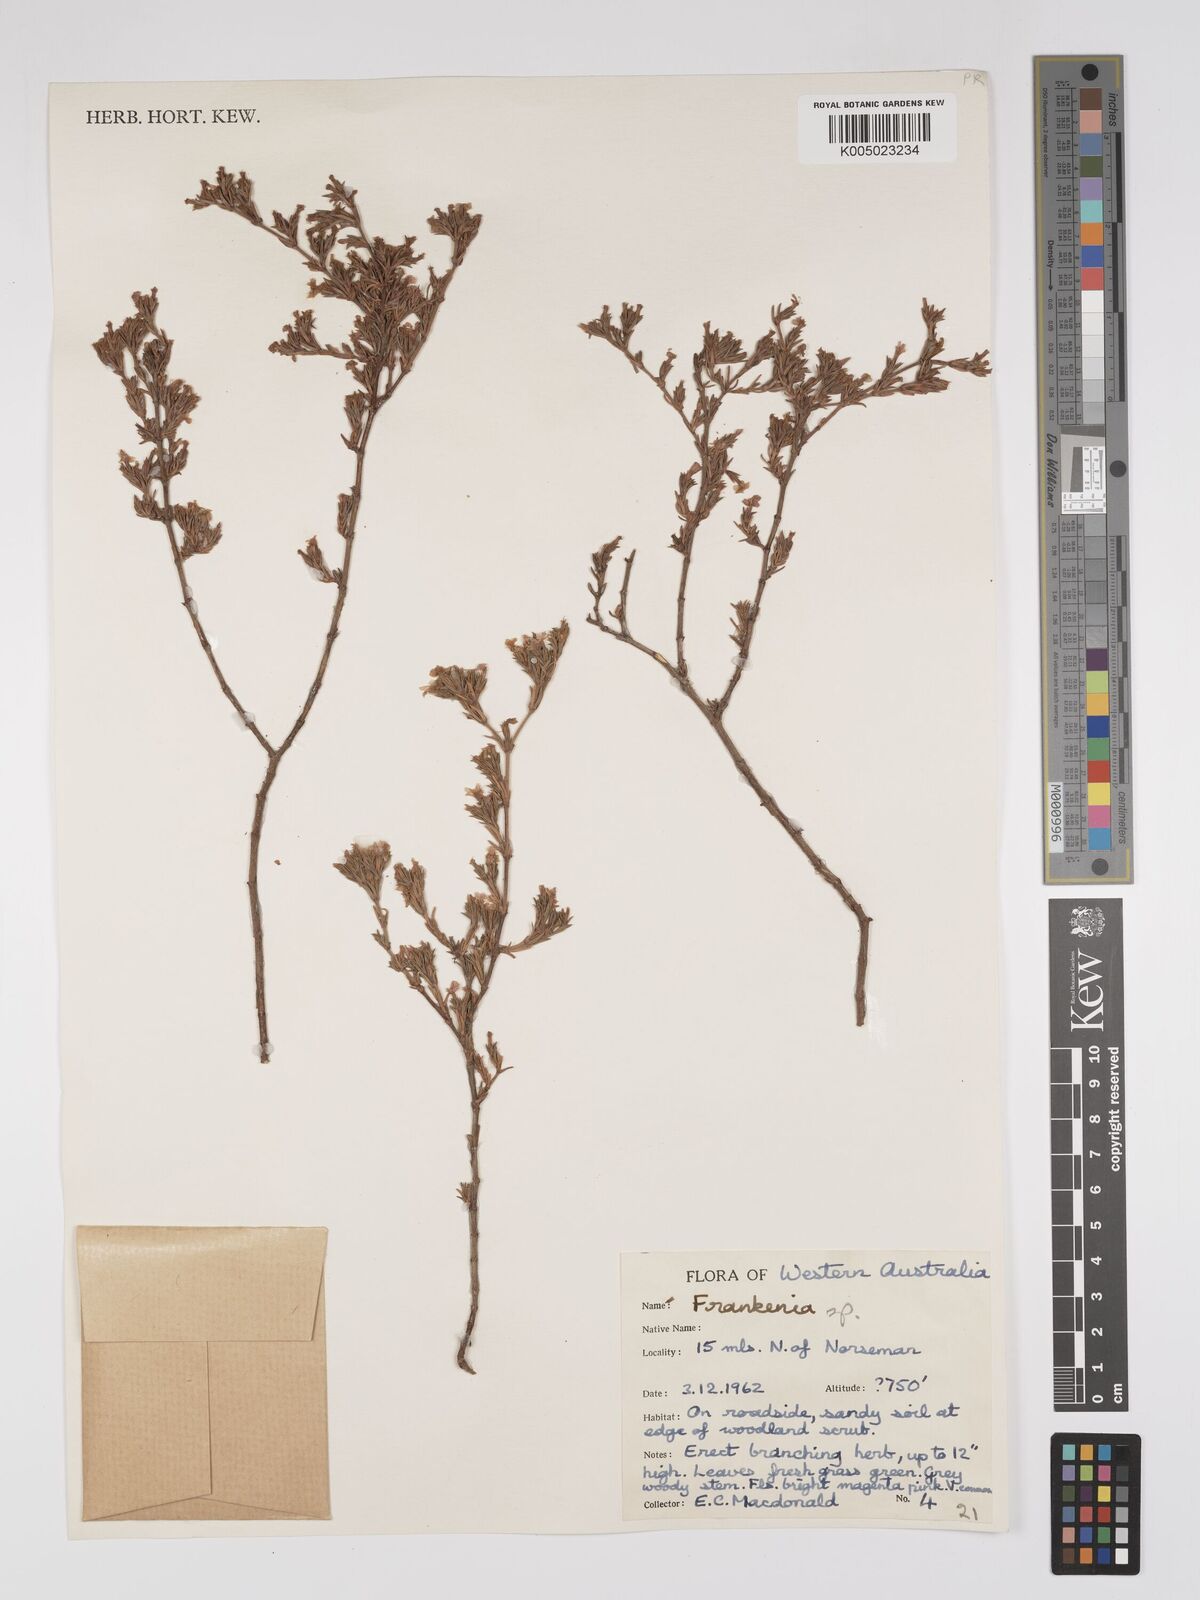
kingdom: Plantae
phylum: Tracheophyta
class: Magnoliopsida
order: Caryophyllales
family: Frankeniaceae
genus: Frankenia
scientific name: Frankenia
